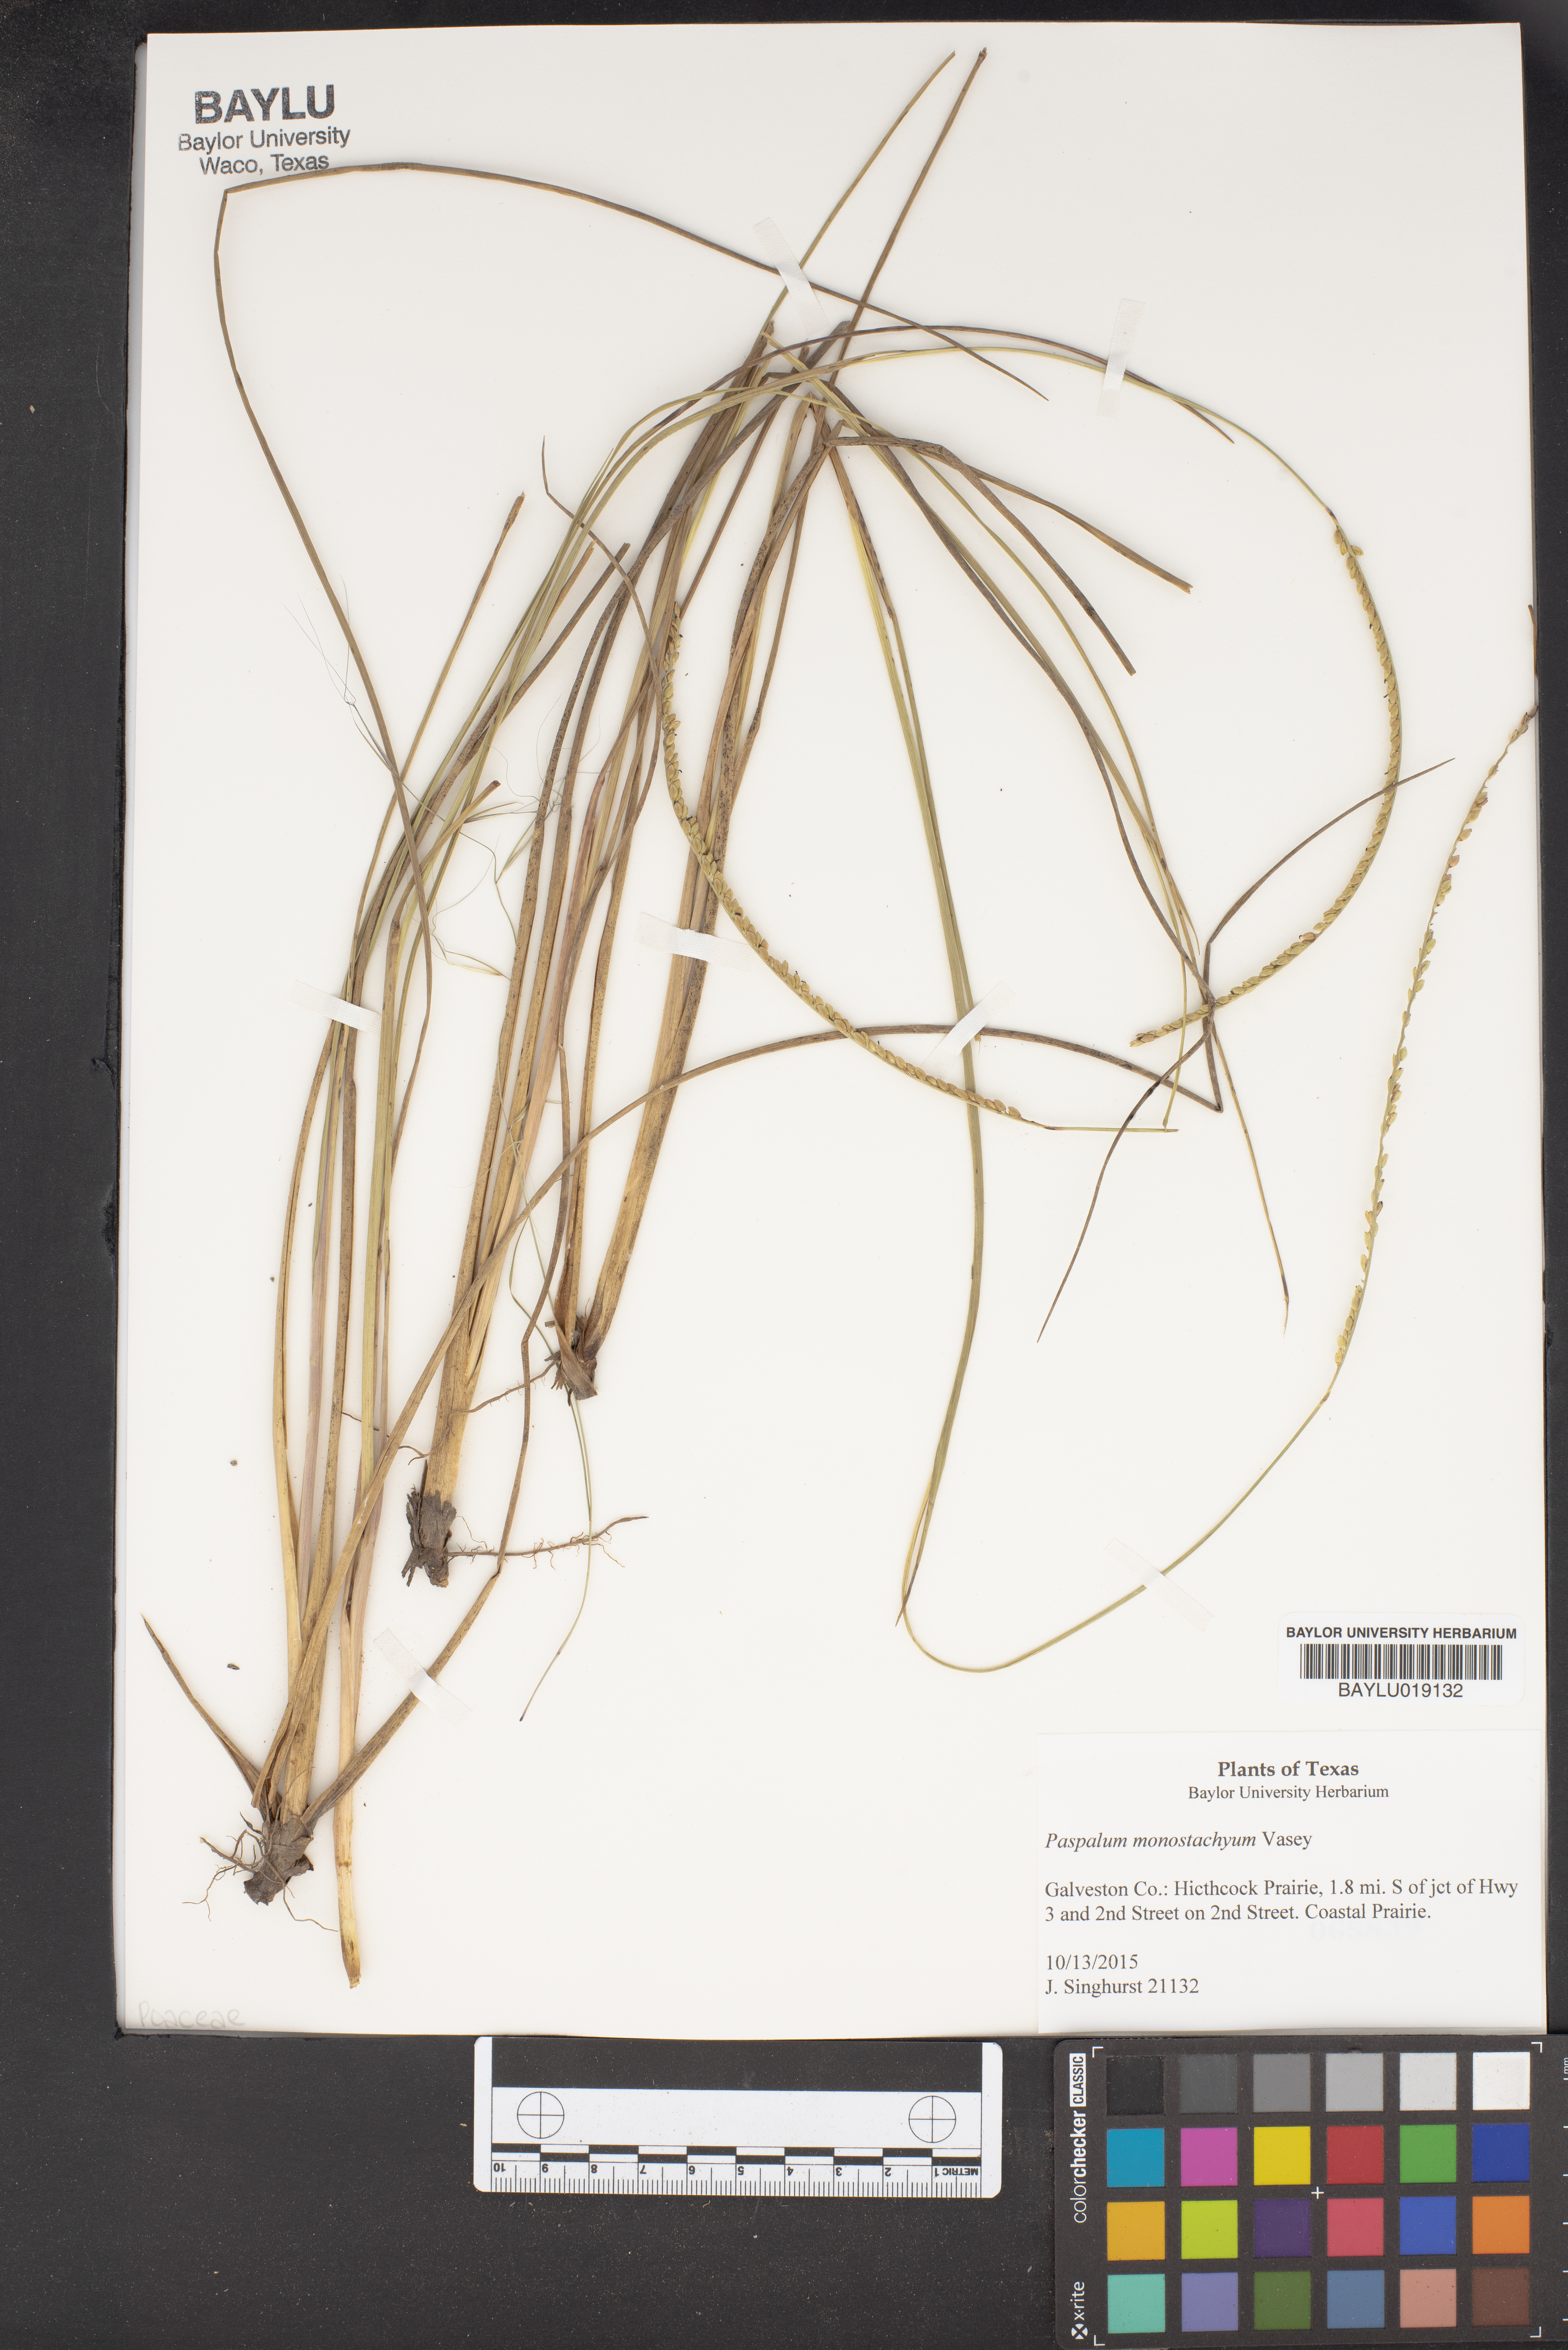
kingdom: Plantae
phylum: Tracheophyta
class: Liliopsida
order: Poales
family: Poaceae
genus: Paspalum
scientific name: Paspalum monostachyum
